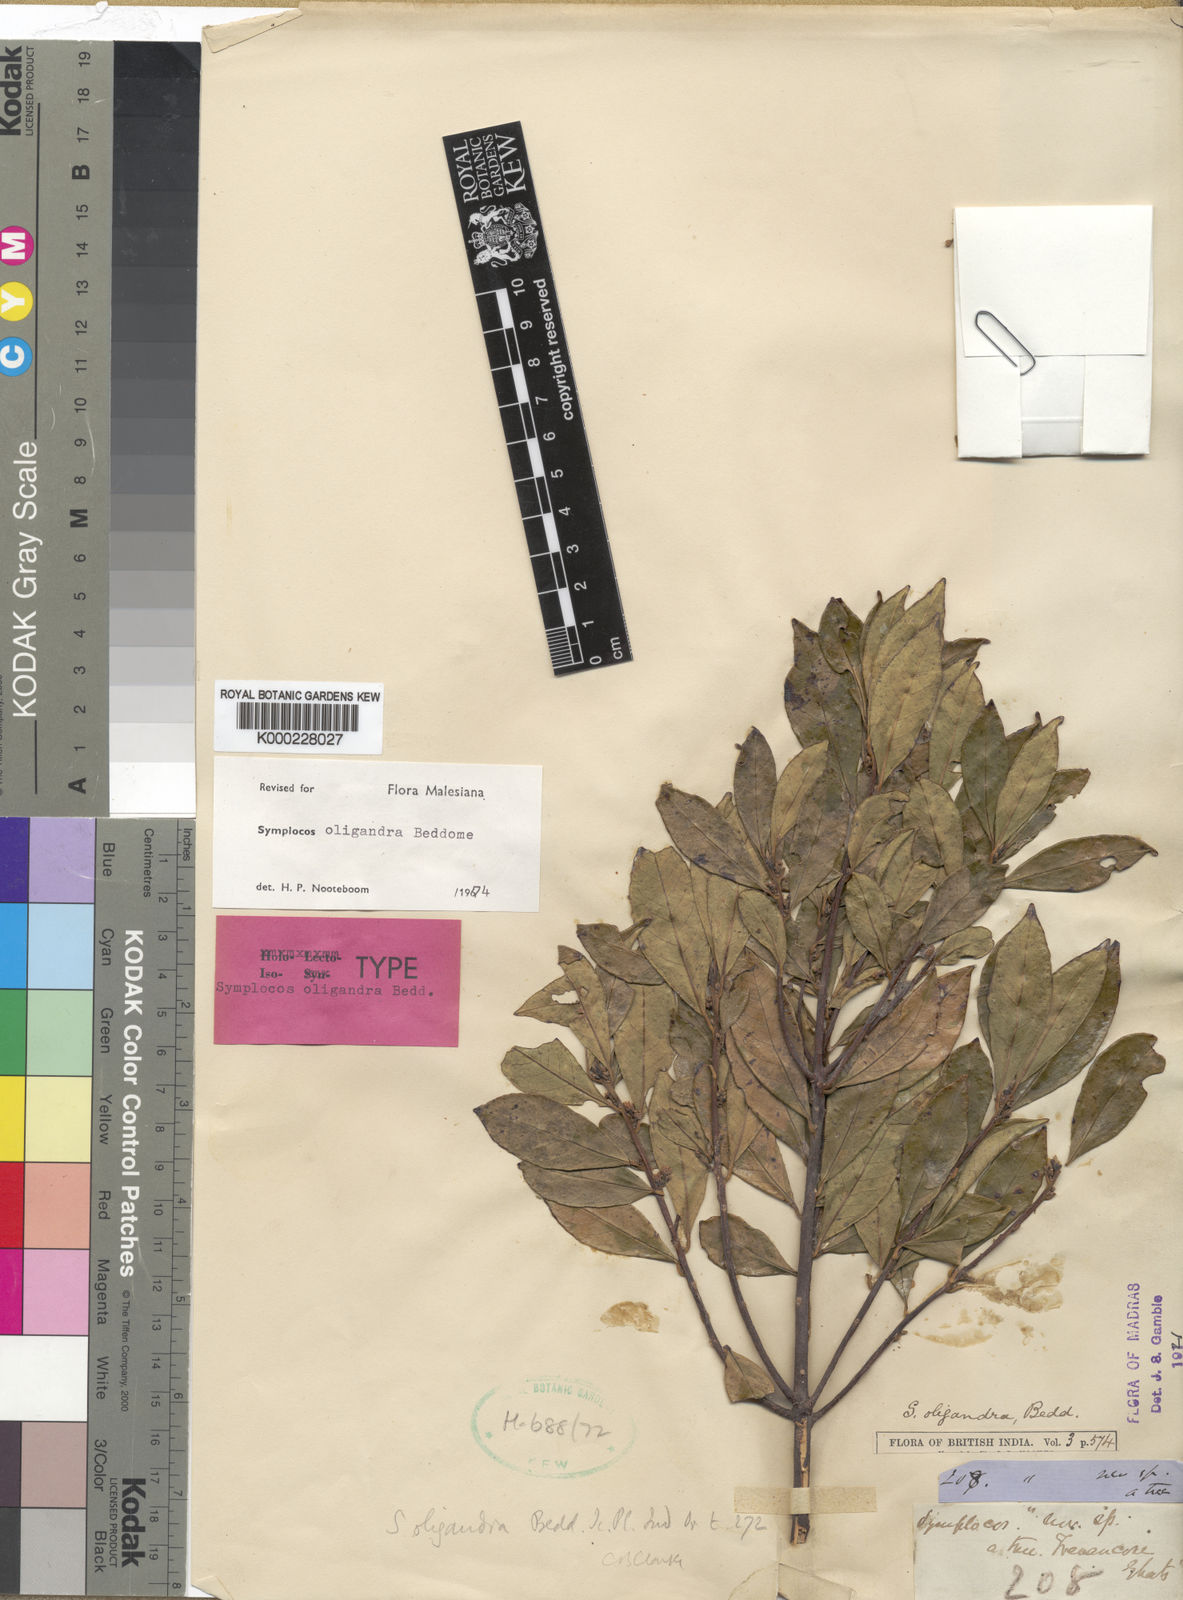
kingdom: Plantae
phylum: Tracheophyta
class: Magnoliopsida
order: Ericales
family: Symplocaceae
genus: Symplocos
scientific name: Symplocos oligandra
